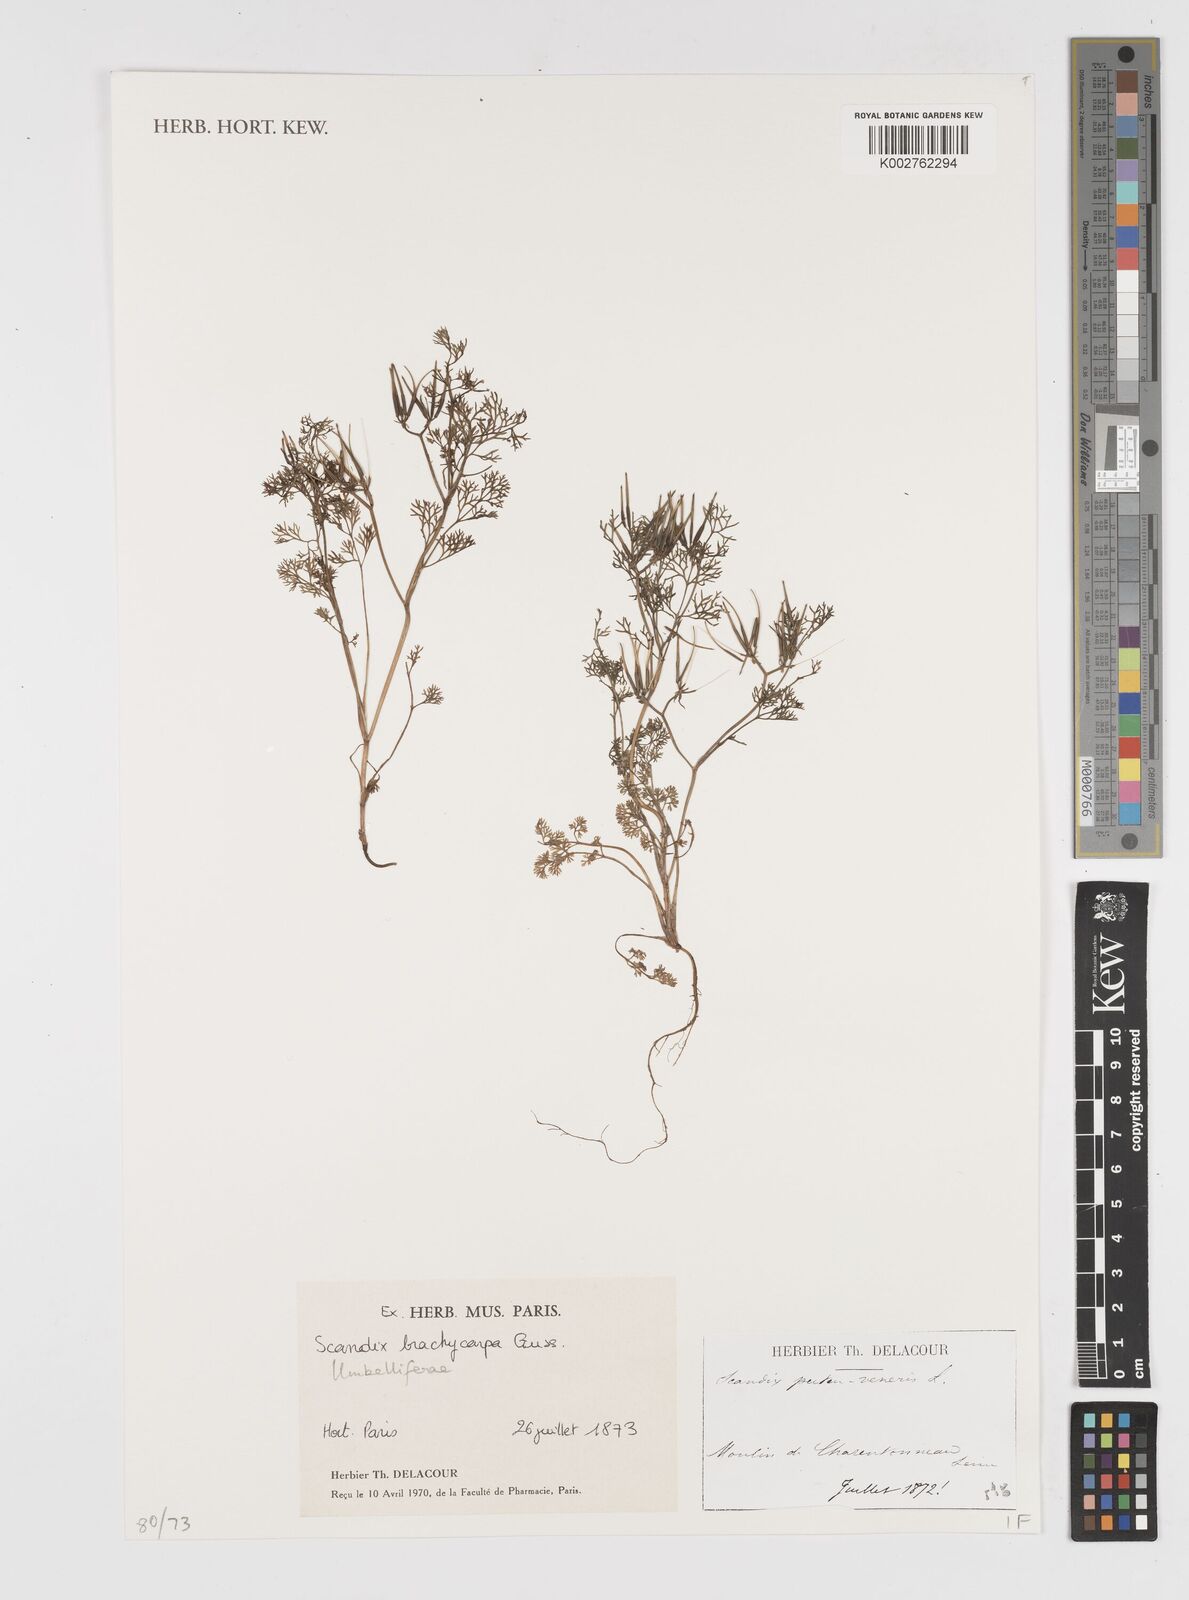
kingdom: Plantae
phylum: Tracheophyta
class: Magnoliopsida
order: Apiales
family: Apiaceae
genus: Scandix
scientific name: Scandix pecten-veneris
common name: Shepherd's-needle
